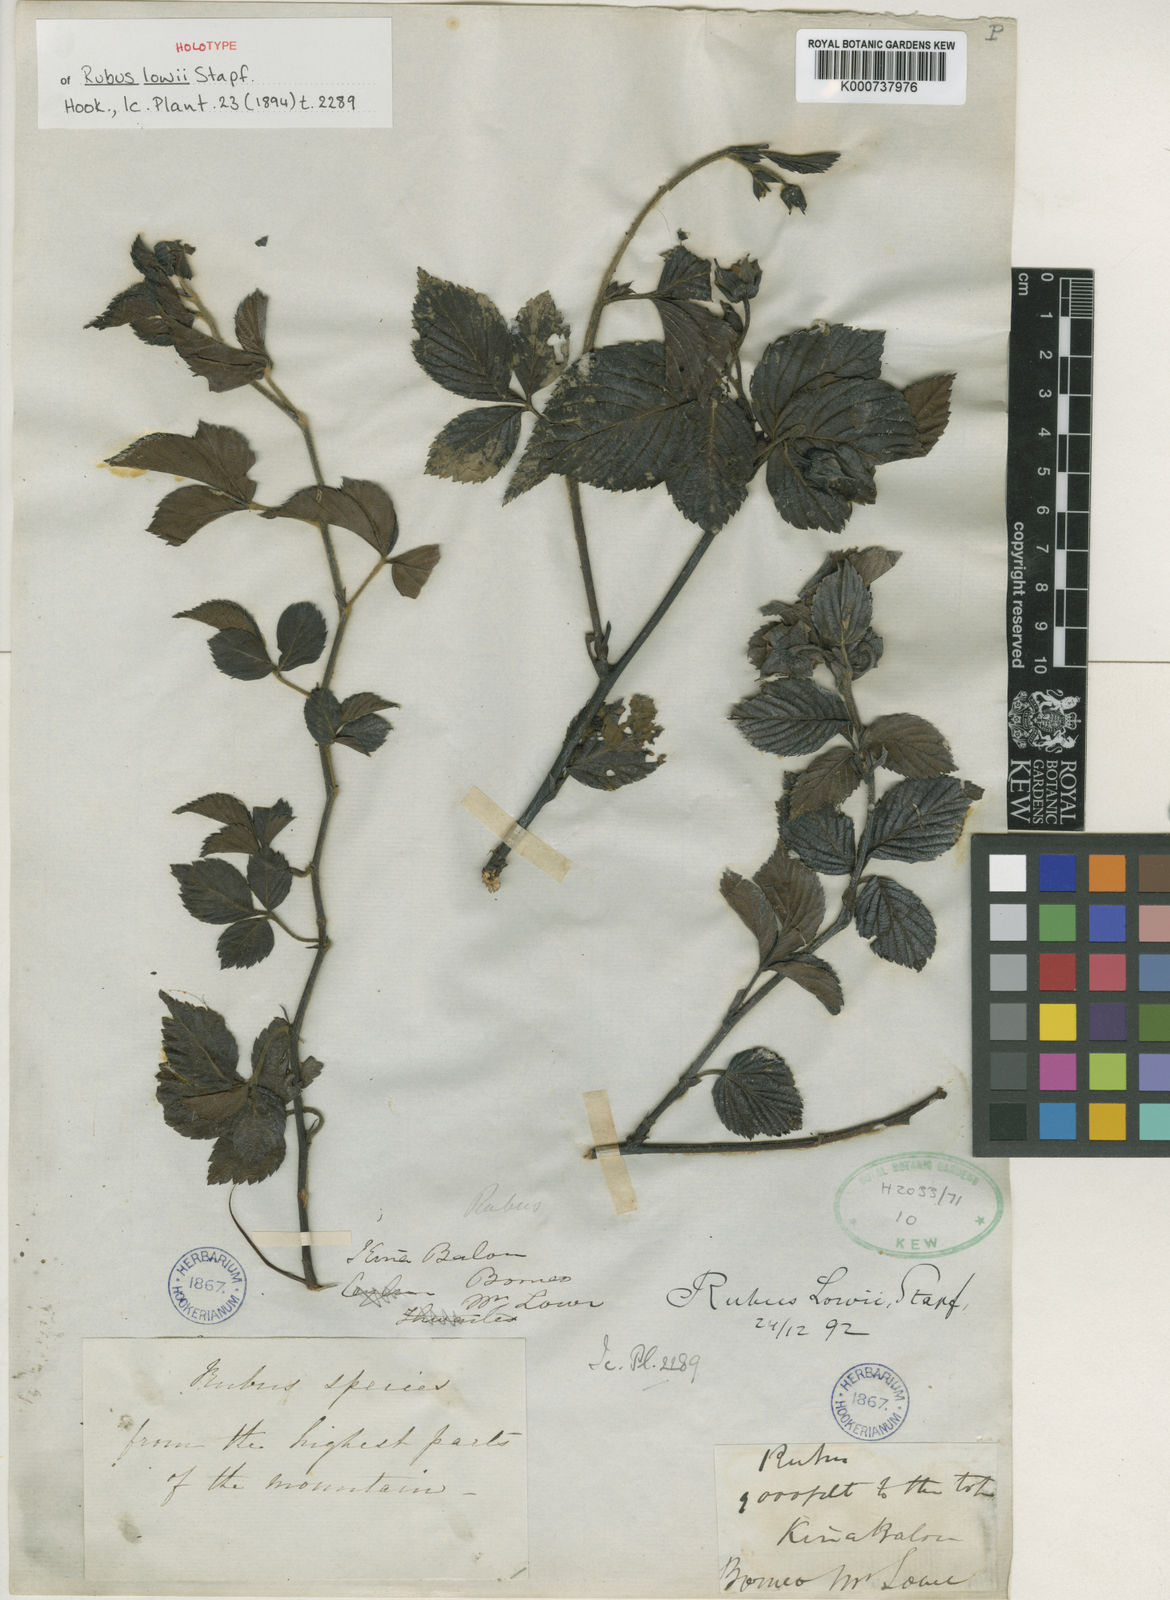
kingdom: Plantae
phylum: Tracheophyta
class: Magnoliopsida
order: Rosales
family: Rosaceae
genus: Rubus
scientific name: Rubus lowii
